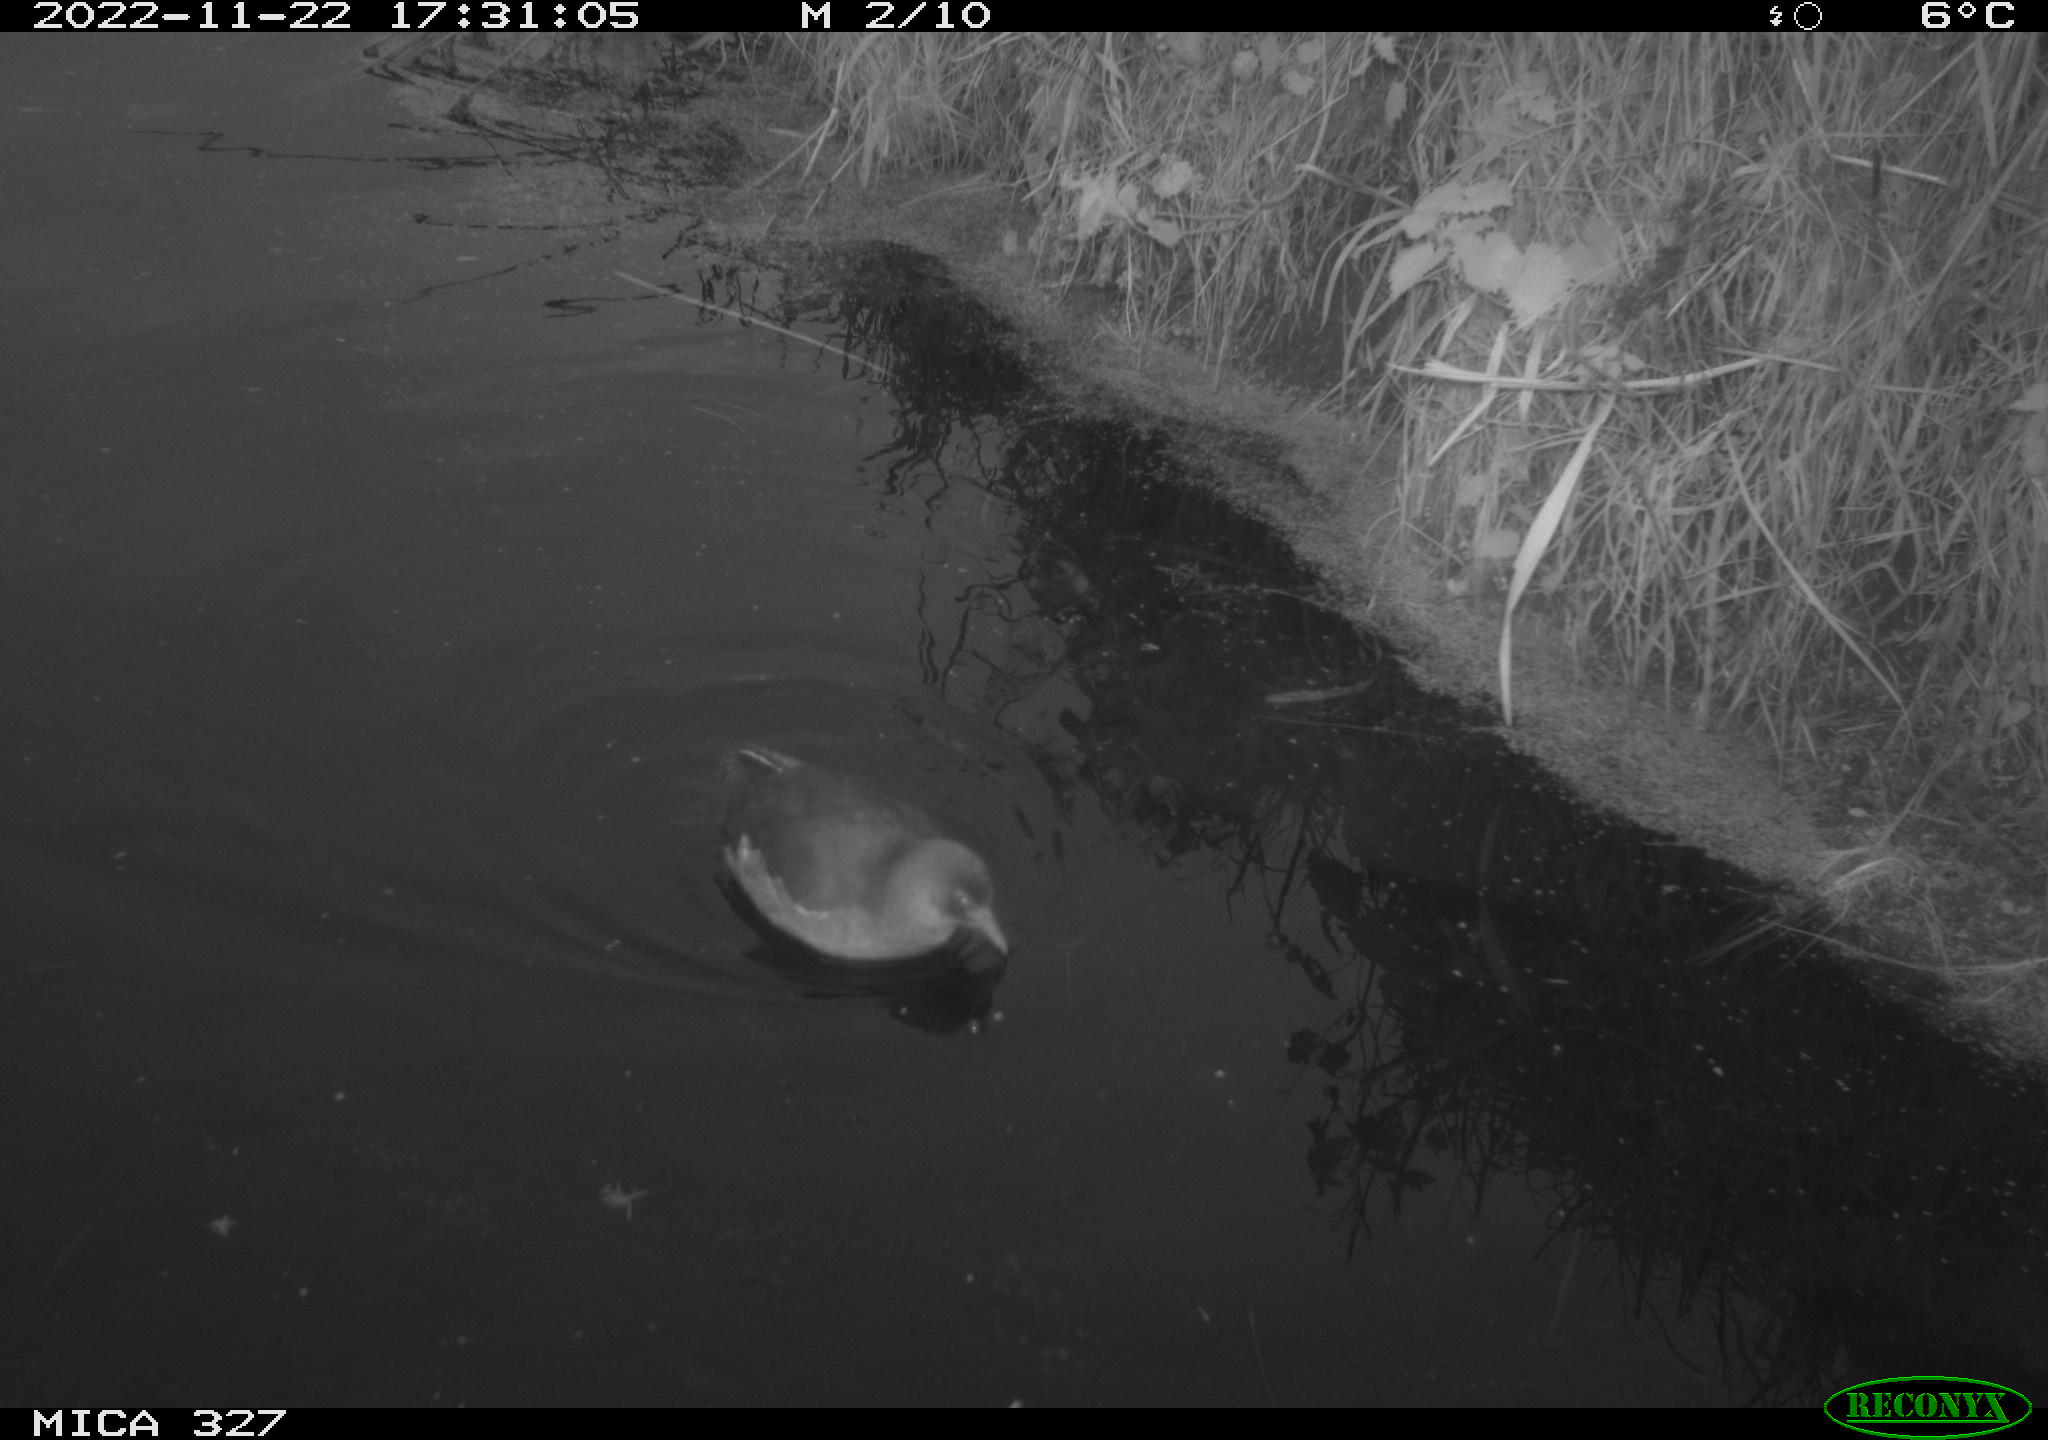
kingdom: Animalia
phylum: Chordata
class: Aves
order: Gruiformes
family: Rallidae
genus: Rallus
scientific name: Rallus aquaticus
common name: Water rail
